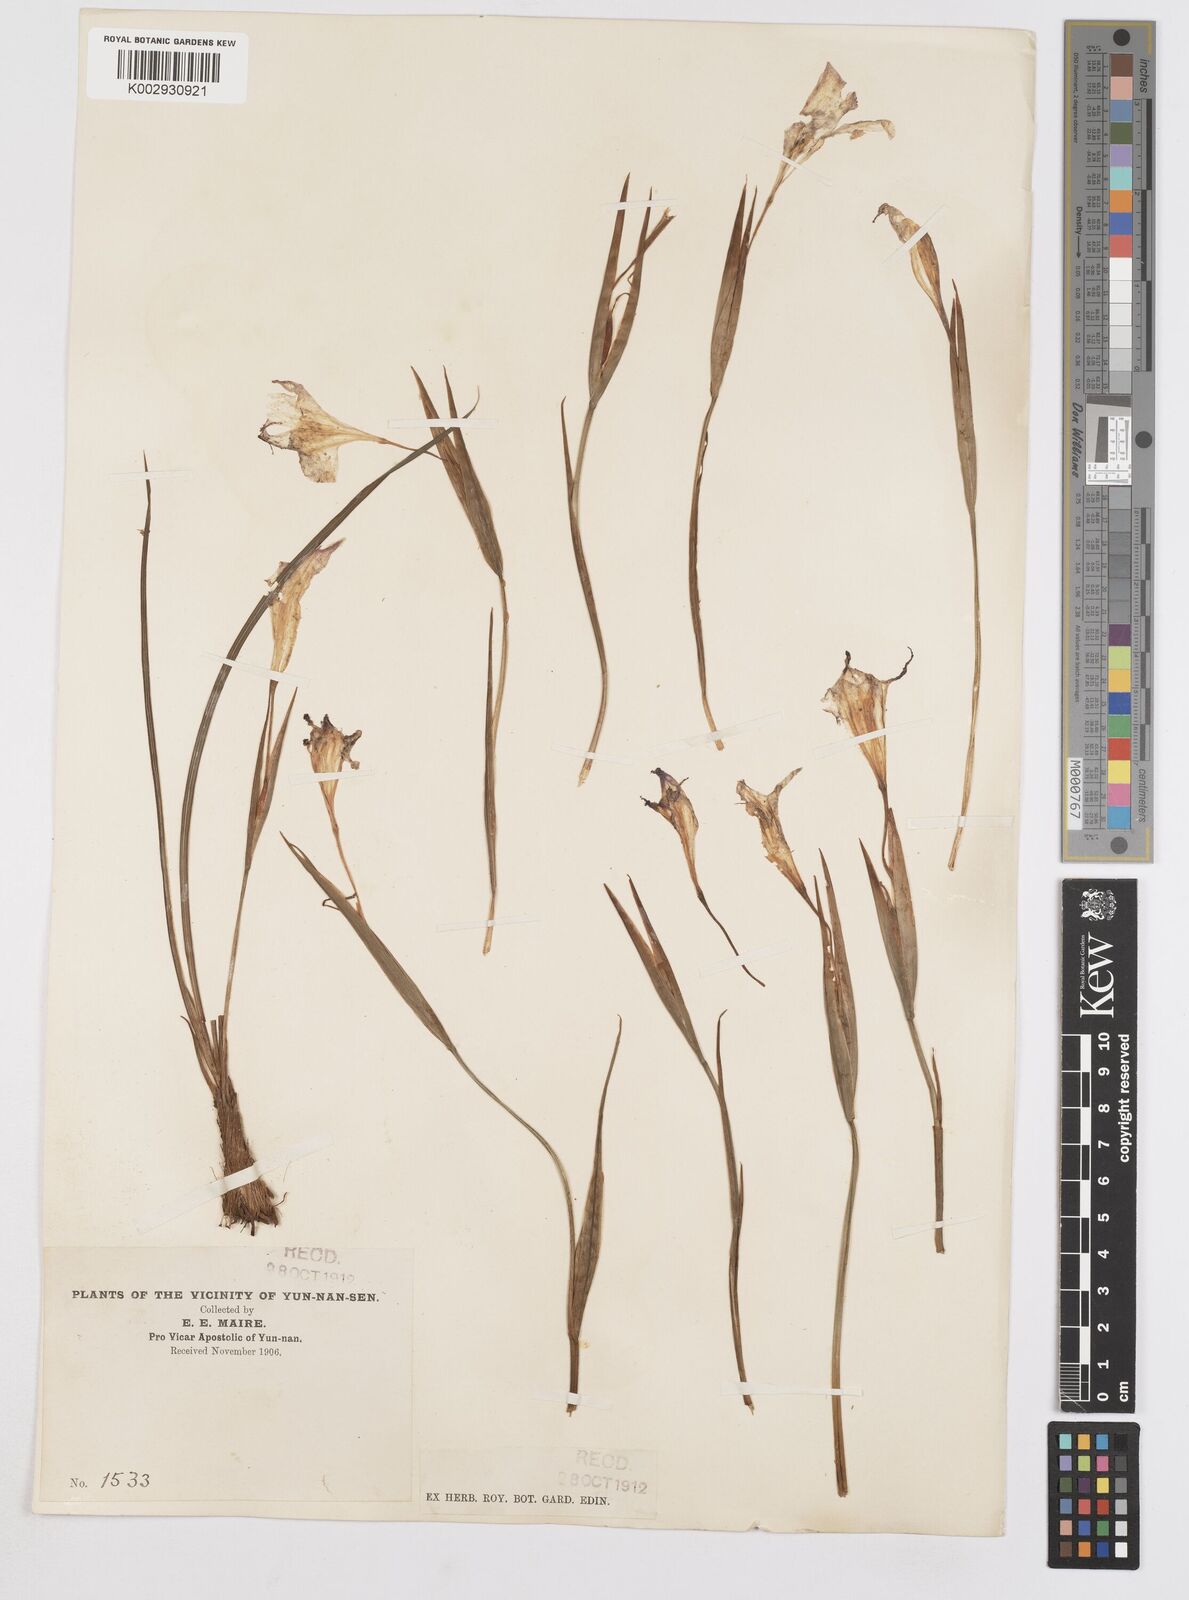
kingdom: Plantae
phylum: Tracheophyta
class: Liliopsida
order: Asparagales
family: Iridaceae
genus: Iris
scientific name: Iris decora
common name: Nepal iris
